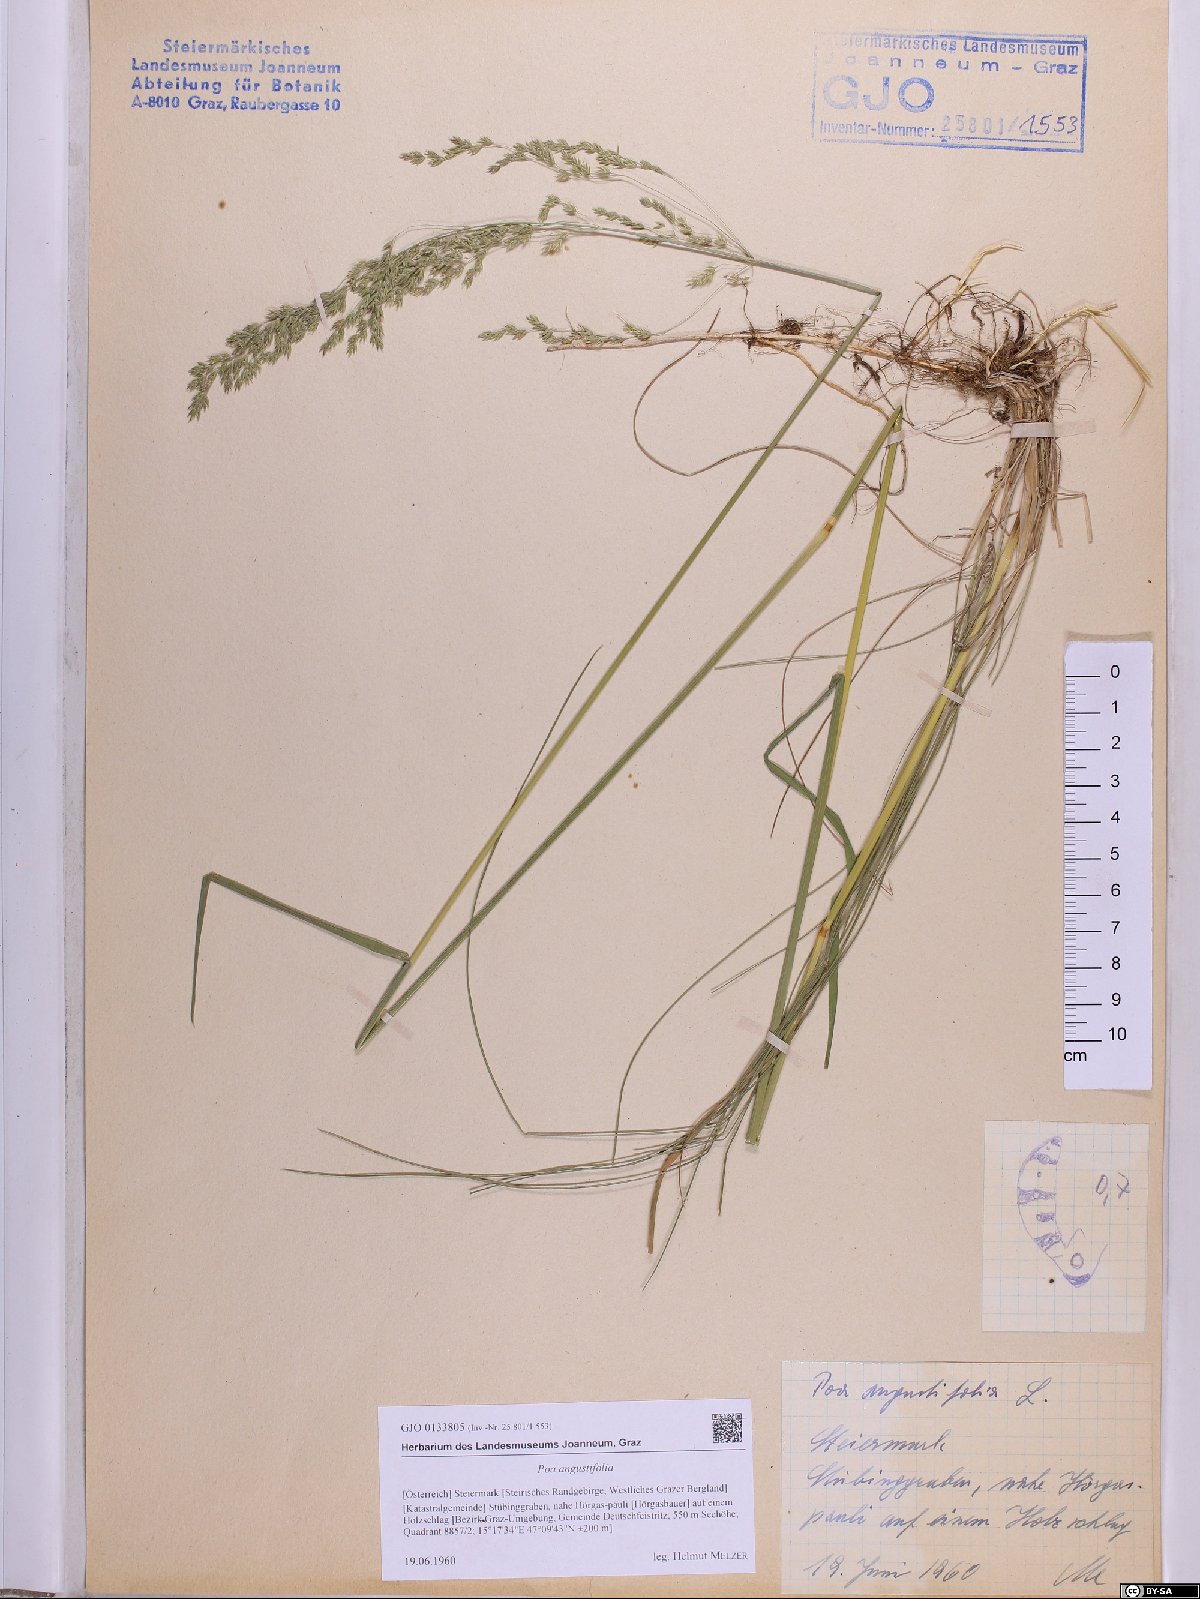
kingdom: Plantae
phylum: Tracheophyta
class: Liliopsida
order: Poales
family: Poaceae
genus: Poa
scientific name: Poa angustifolia
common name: Narrow-leaved meadow-grass
